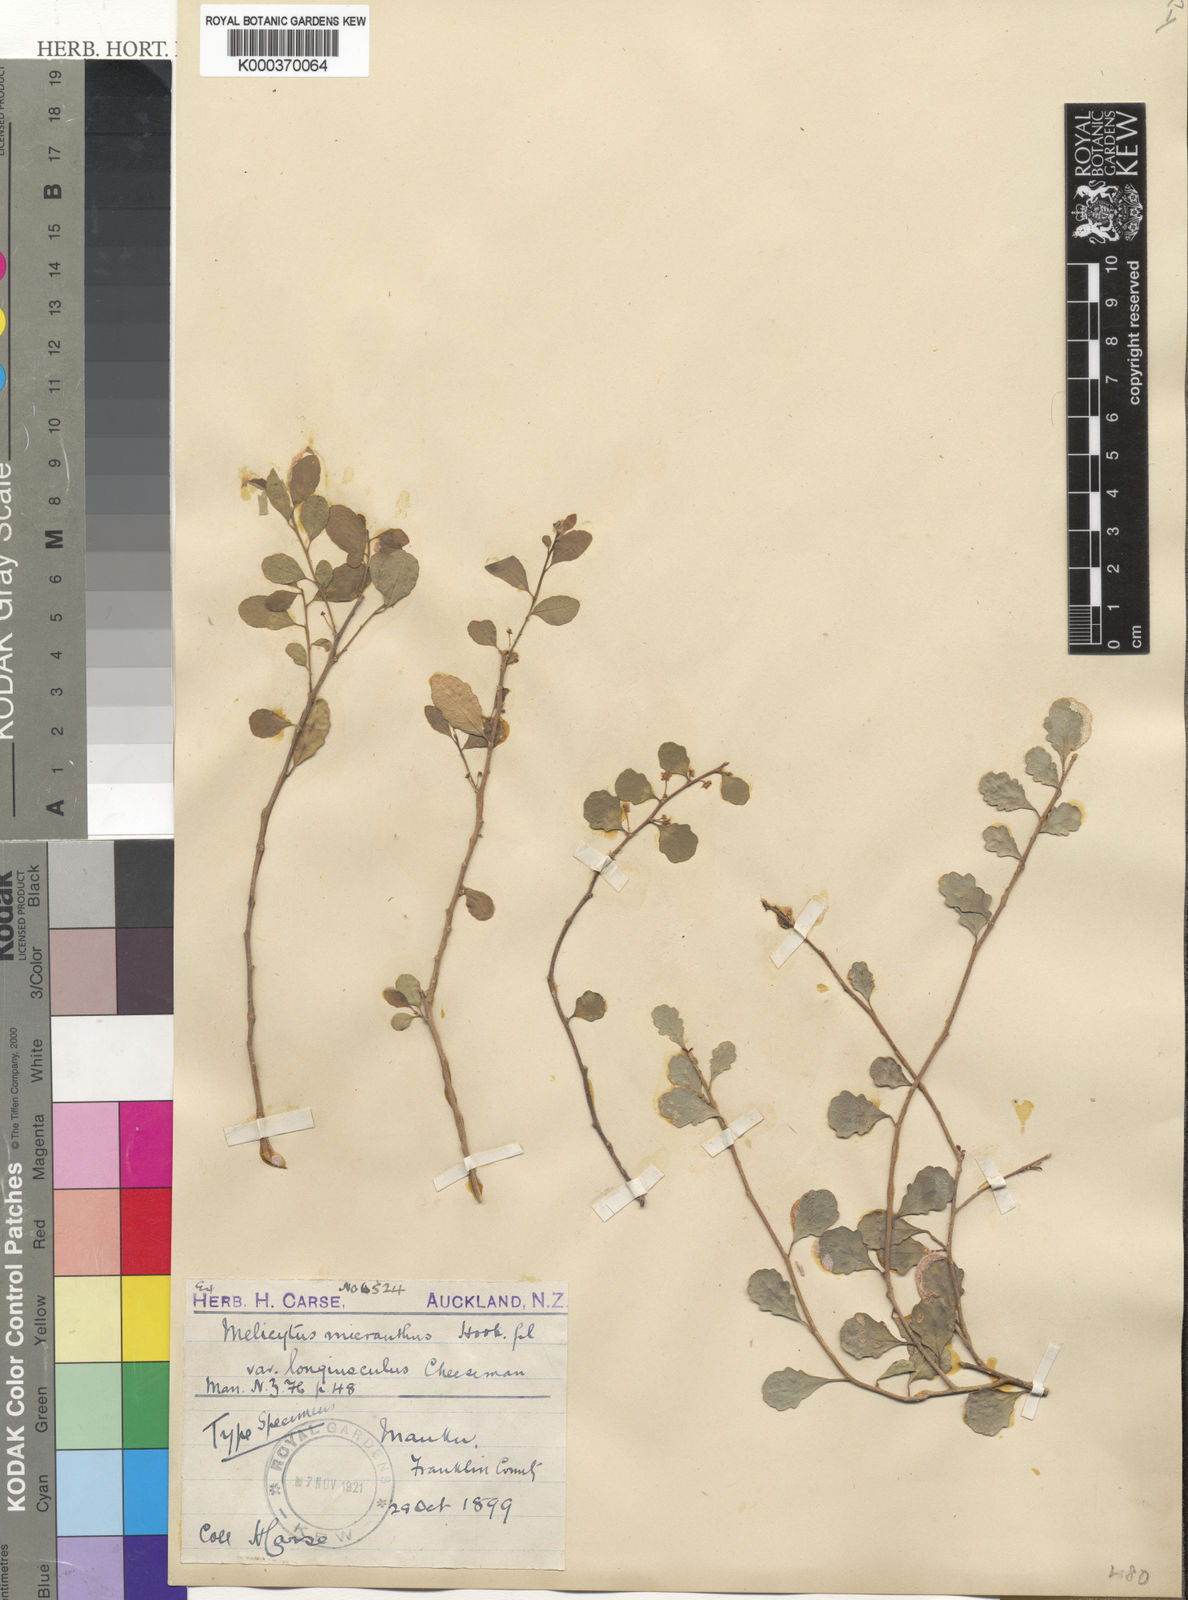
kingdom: Plantae
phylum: Tracheophyta
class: Magnoliopsida
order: Malpighiales
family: Violaceae
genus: Melicytus
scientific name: Melicytus micranthus
